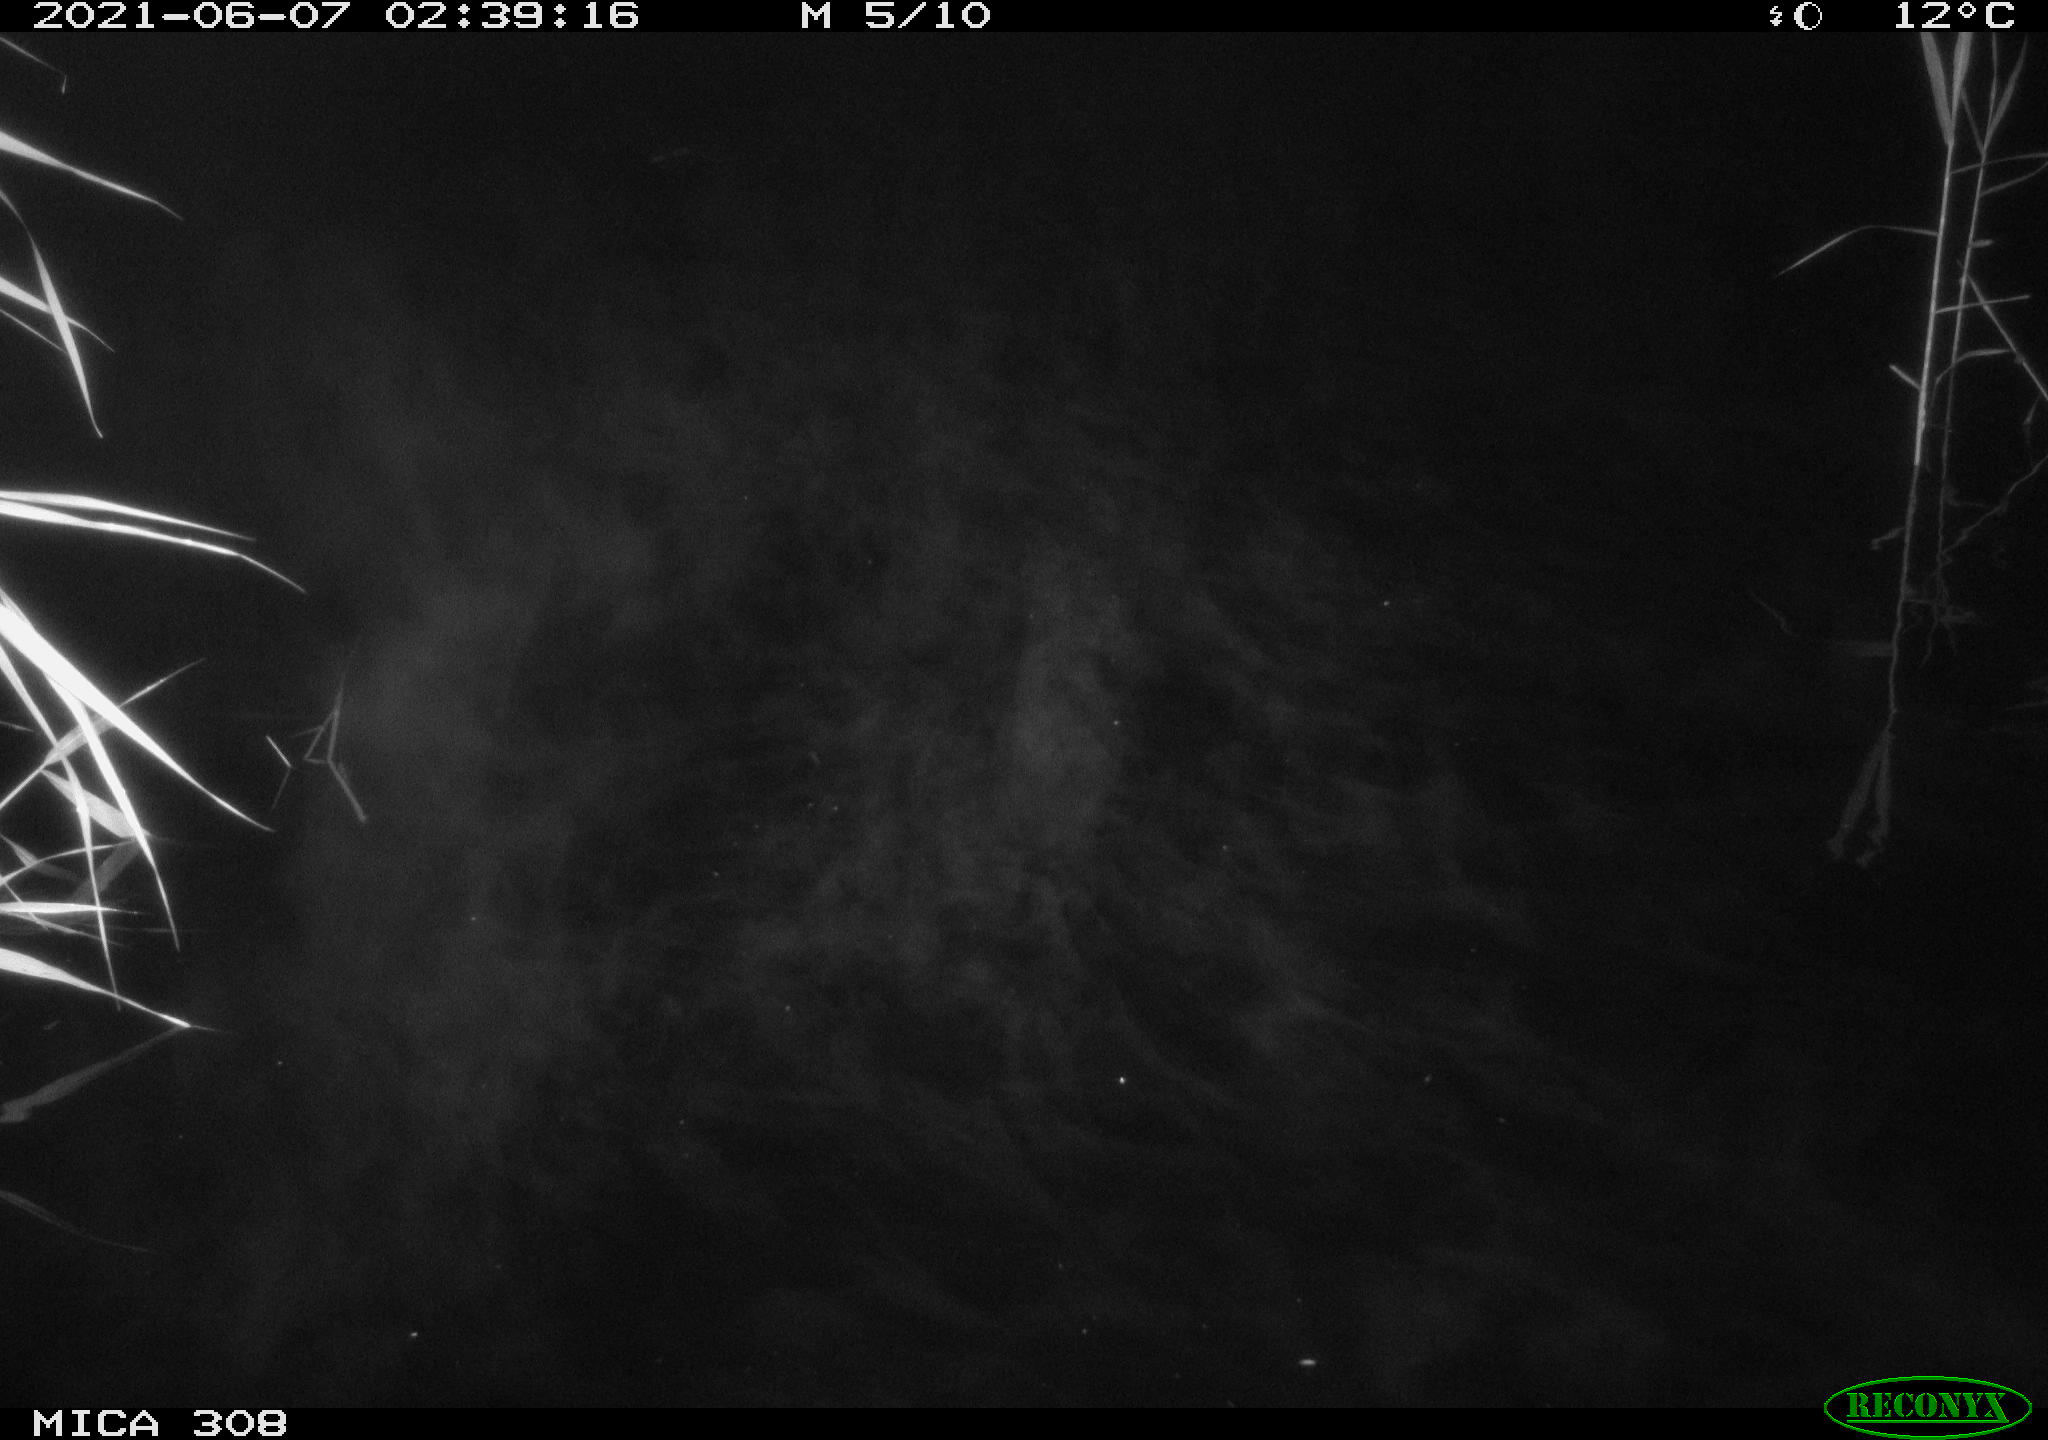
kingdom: Animalia
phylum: Chordata
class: Aves
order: Gruiformes
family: Rallidae
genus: Gallinula
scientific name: Gallinula chloropus
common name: Common moorhen
